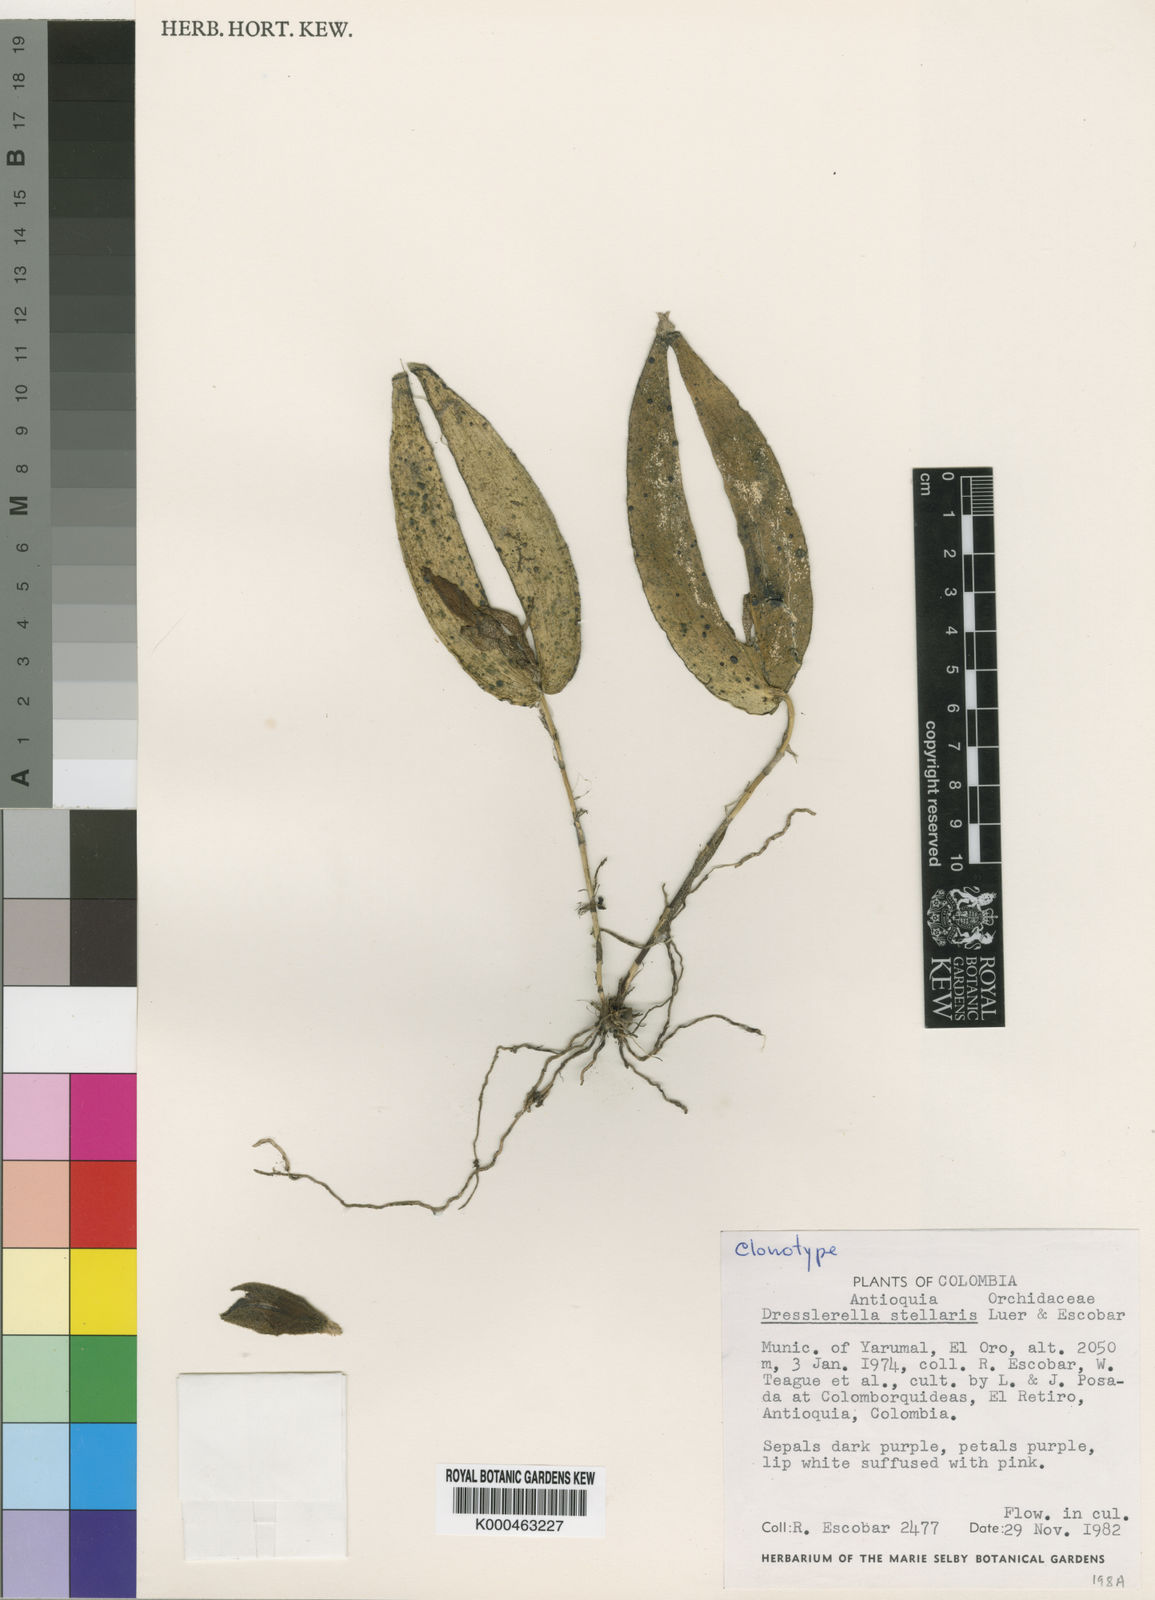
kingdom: Plantae
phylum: Tracheophyta
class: Liliopsida
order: Asparagales
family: Orchidaceae
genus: Dresslerella
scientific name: Dresslerella stellaris
